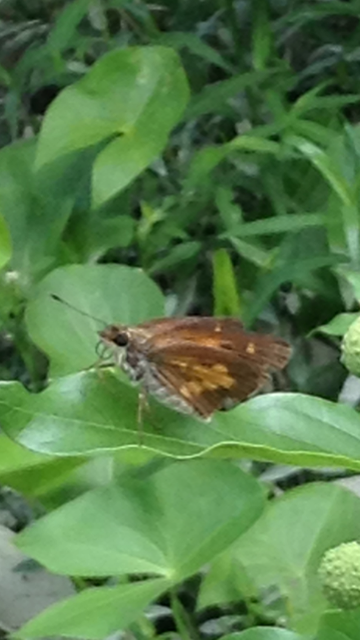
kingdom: Animalia
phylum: Arthropoda
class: Insecta
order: Lepidoptera
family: Hesperiidae
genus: Poanes
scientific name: Poanes viator
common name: Broad-winged Skipper
